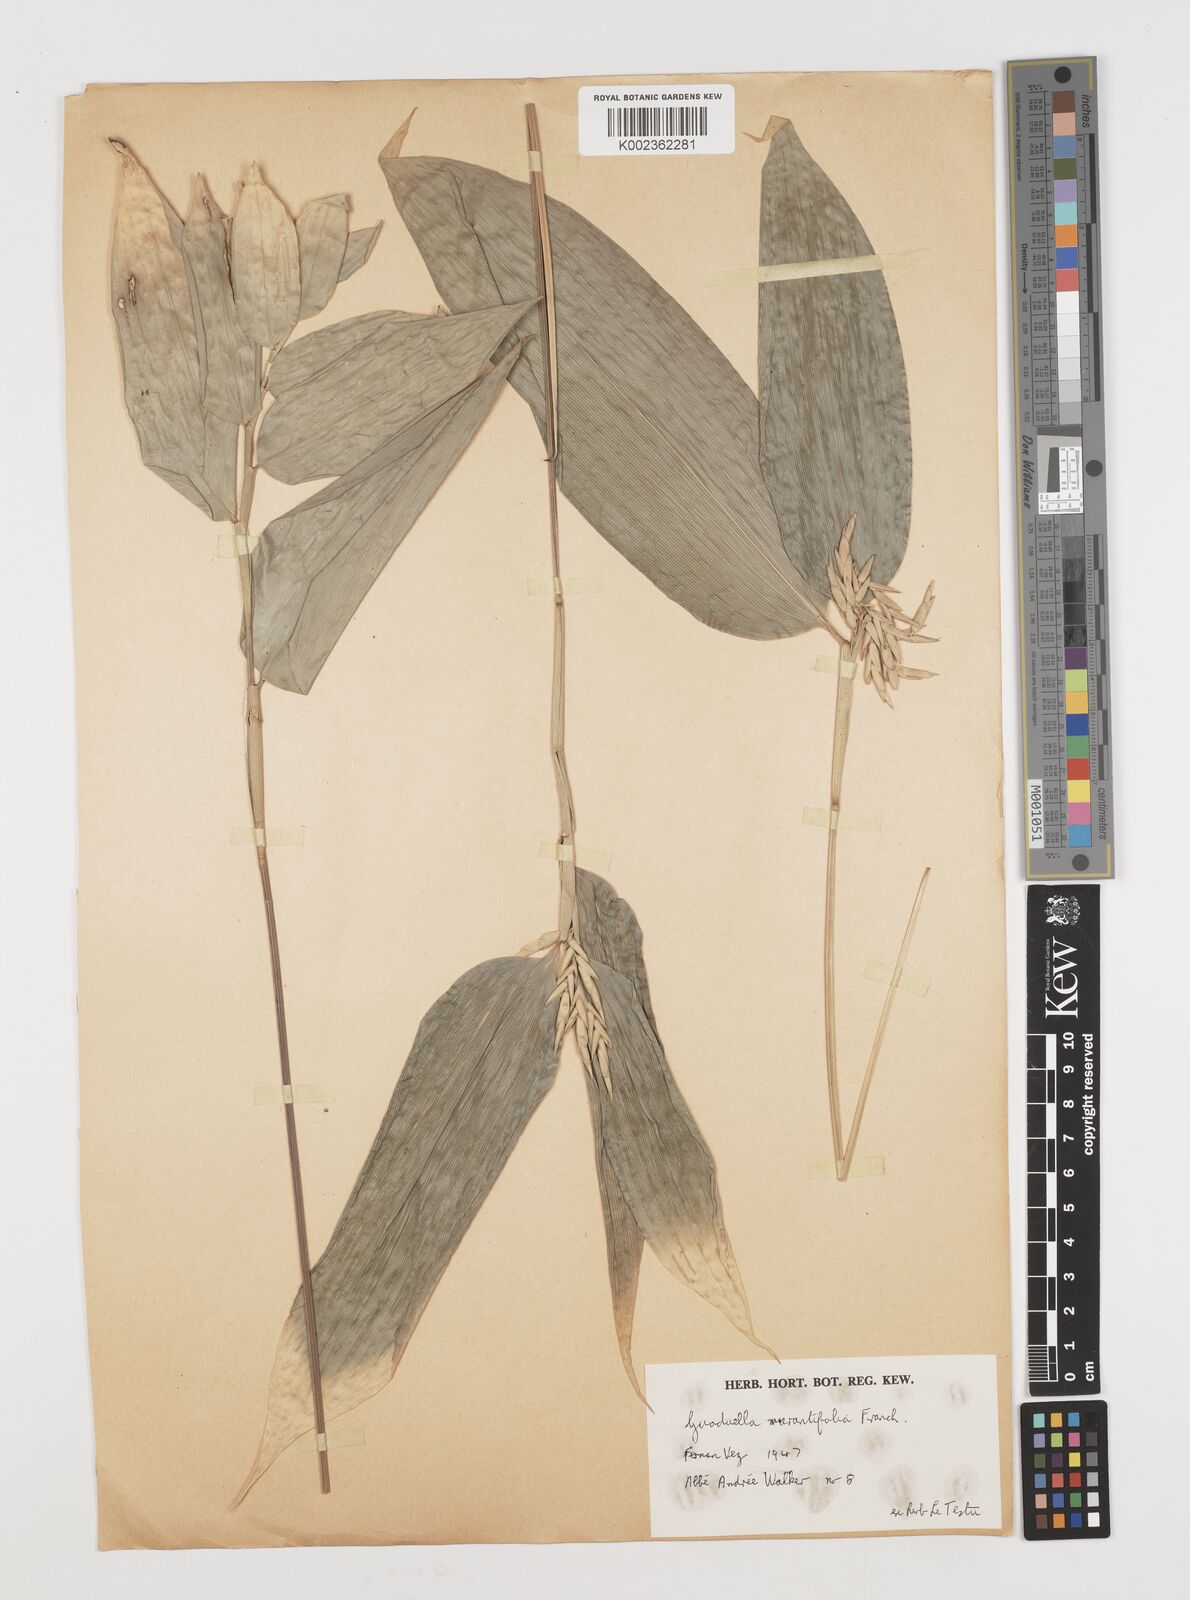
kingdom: Plantae
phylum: Tracheophyta
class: Liliopsida
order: Poales
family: Poaceae
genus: Guaduella
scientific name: Guaduella marantifolia
